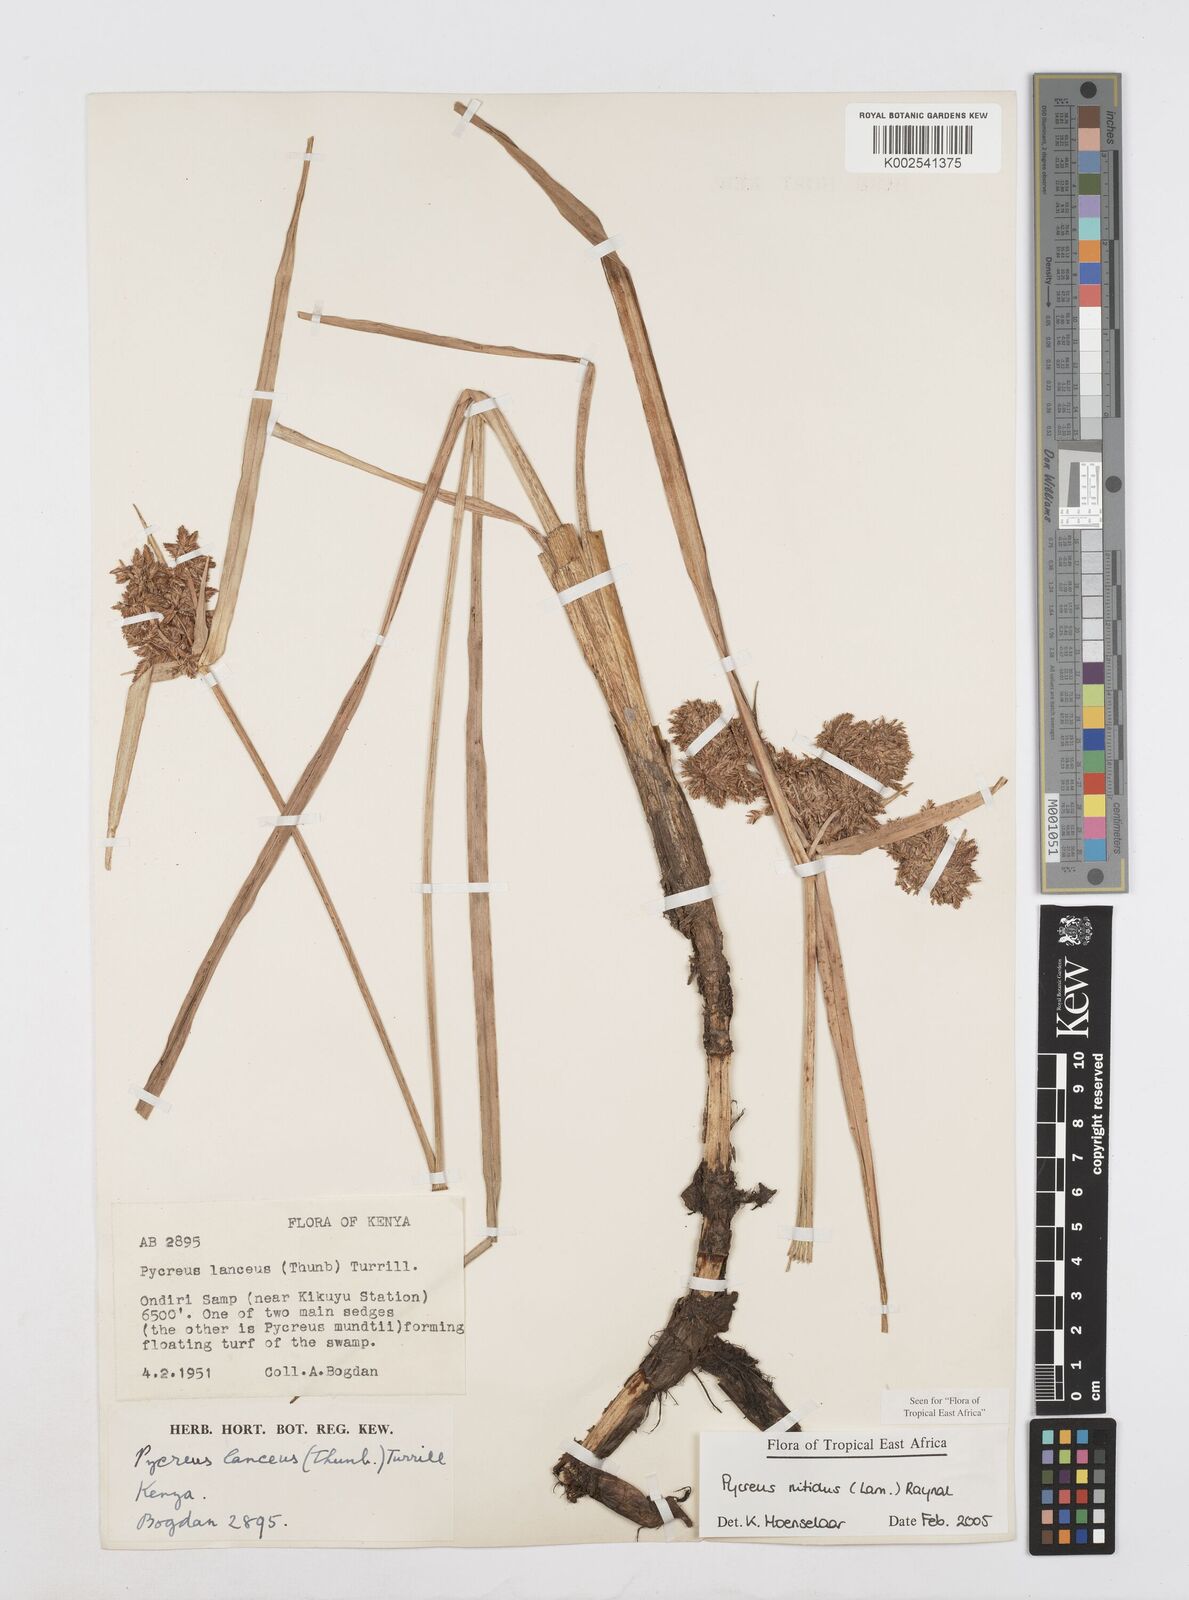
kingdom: Plantae
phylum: Tracheophyta
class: Liliopsida
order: Poales
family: Cyperaceae
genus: Cyperus
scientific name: Cyperus nitidus
